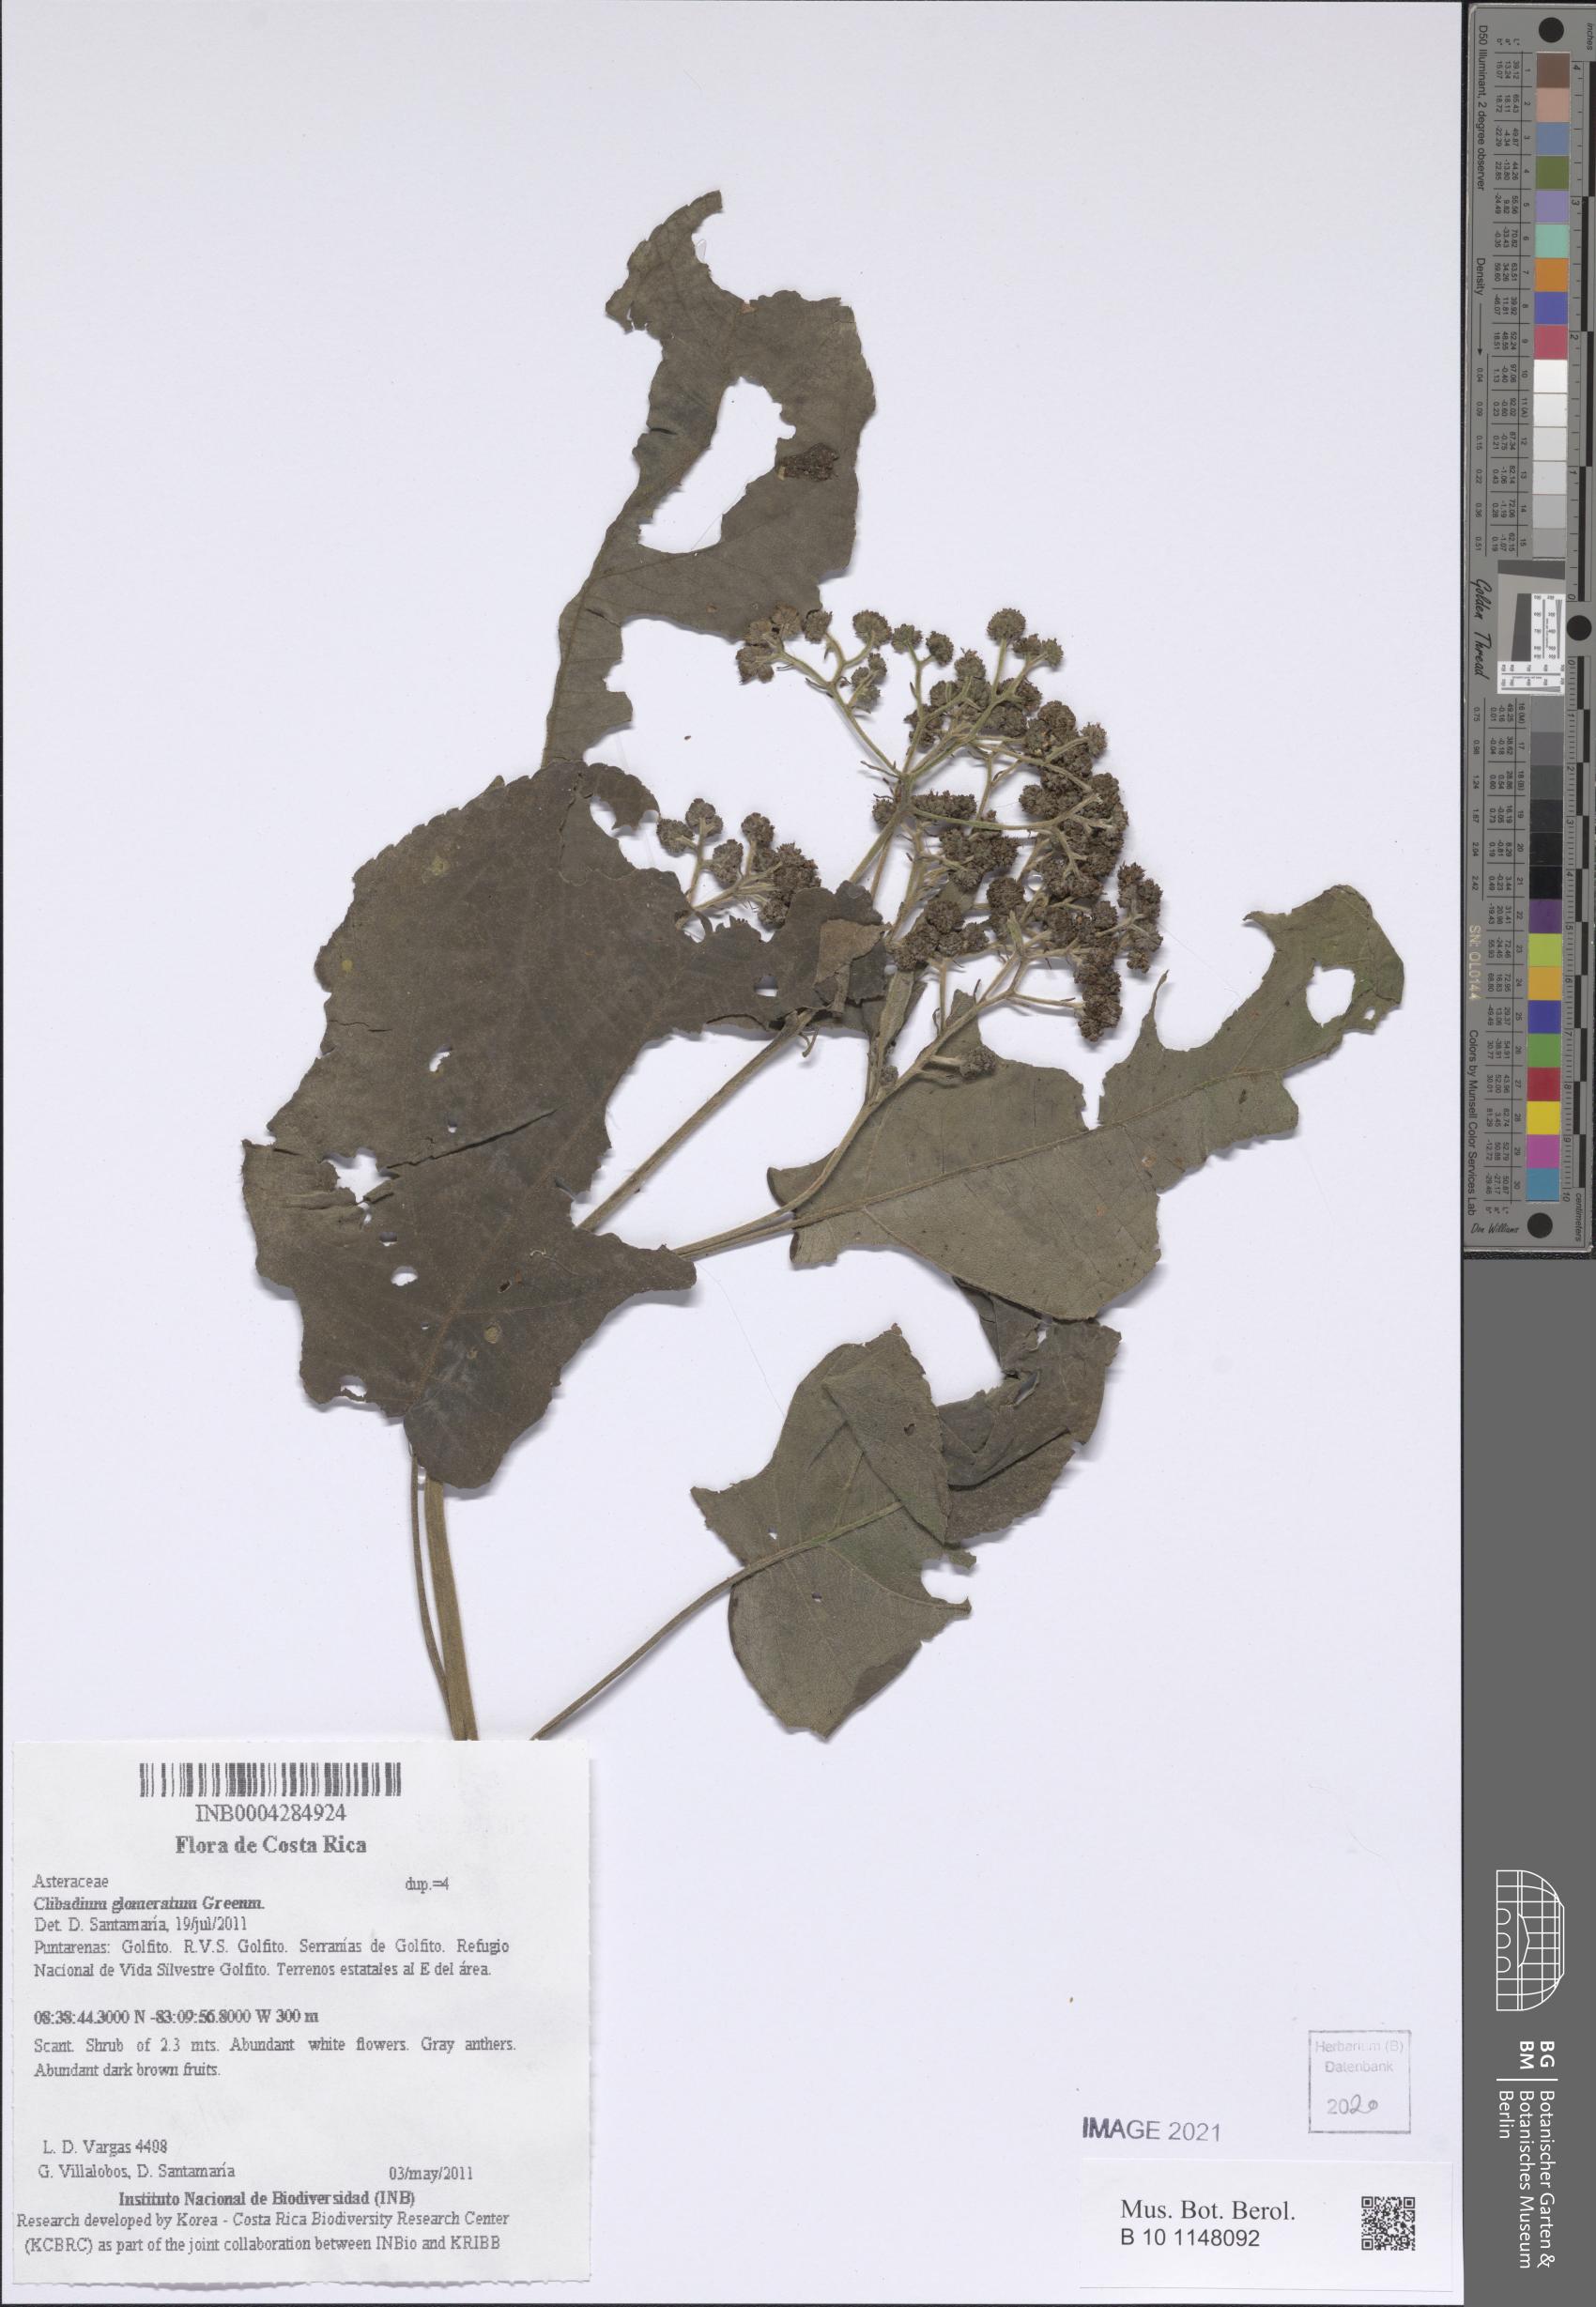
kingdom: Plantae
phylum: Tracheophyta
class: Magnoliopsida
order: Asterales
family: Asteraceae
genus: Clibadium
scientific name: Clibadium glomeratum
